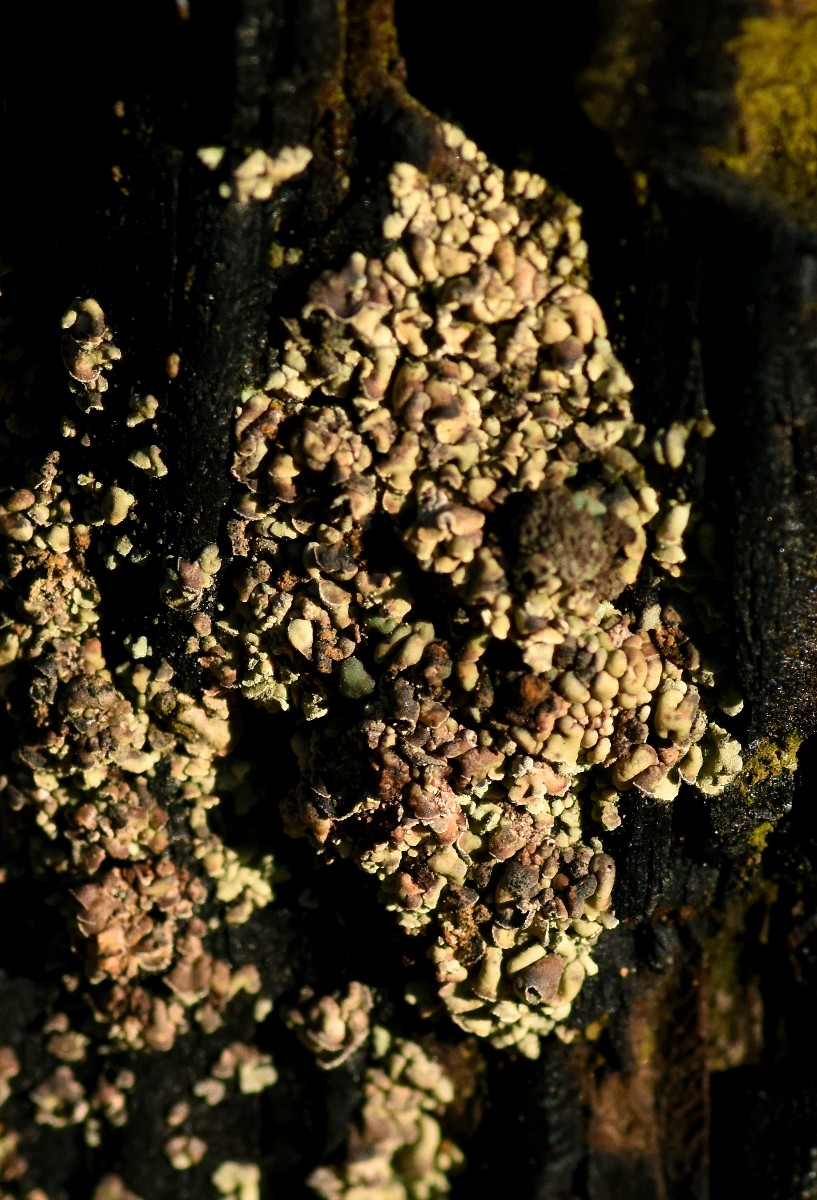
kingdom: Fungi
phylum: Ascomycota
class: Lecanoromycetes
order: Umbilicariales
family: Ophioparmaceae
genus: Hypocenomyce
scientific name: Hypocenomyce scalaris
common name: småskællet muslinglav
